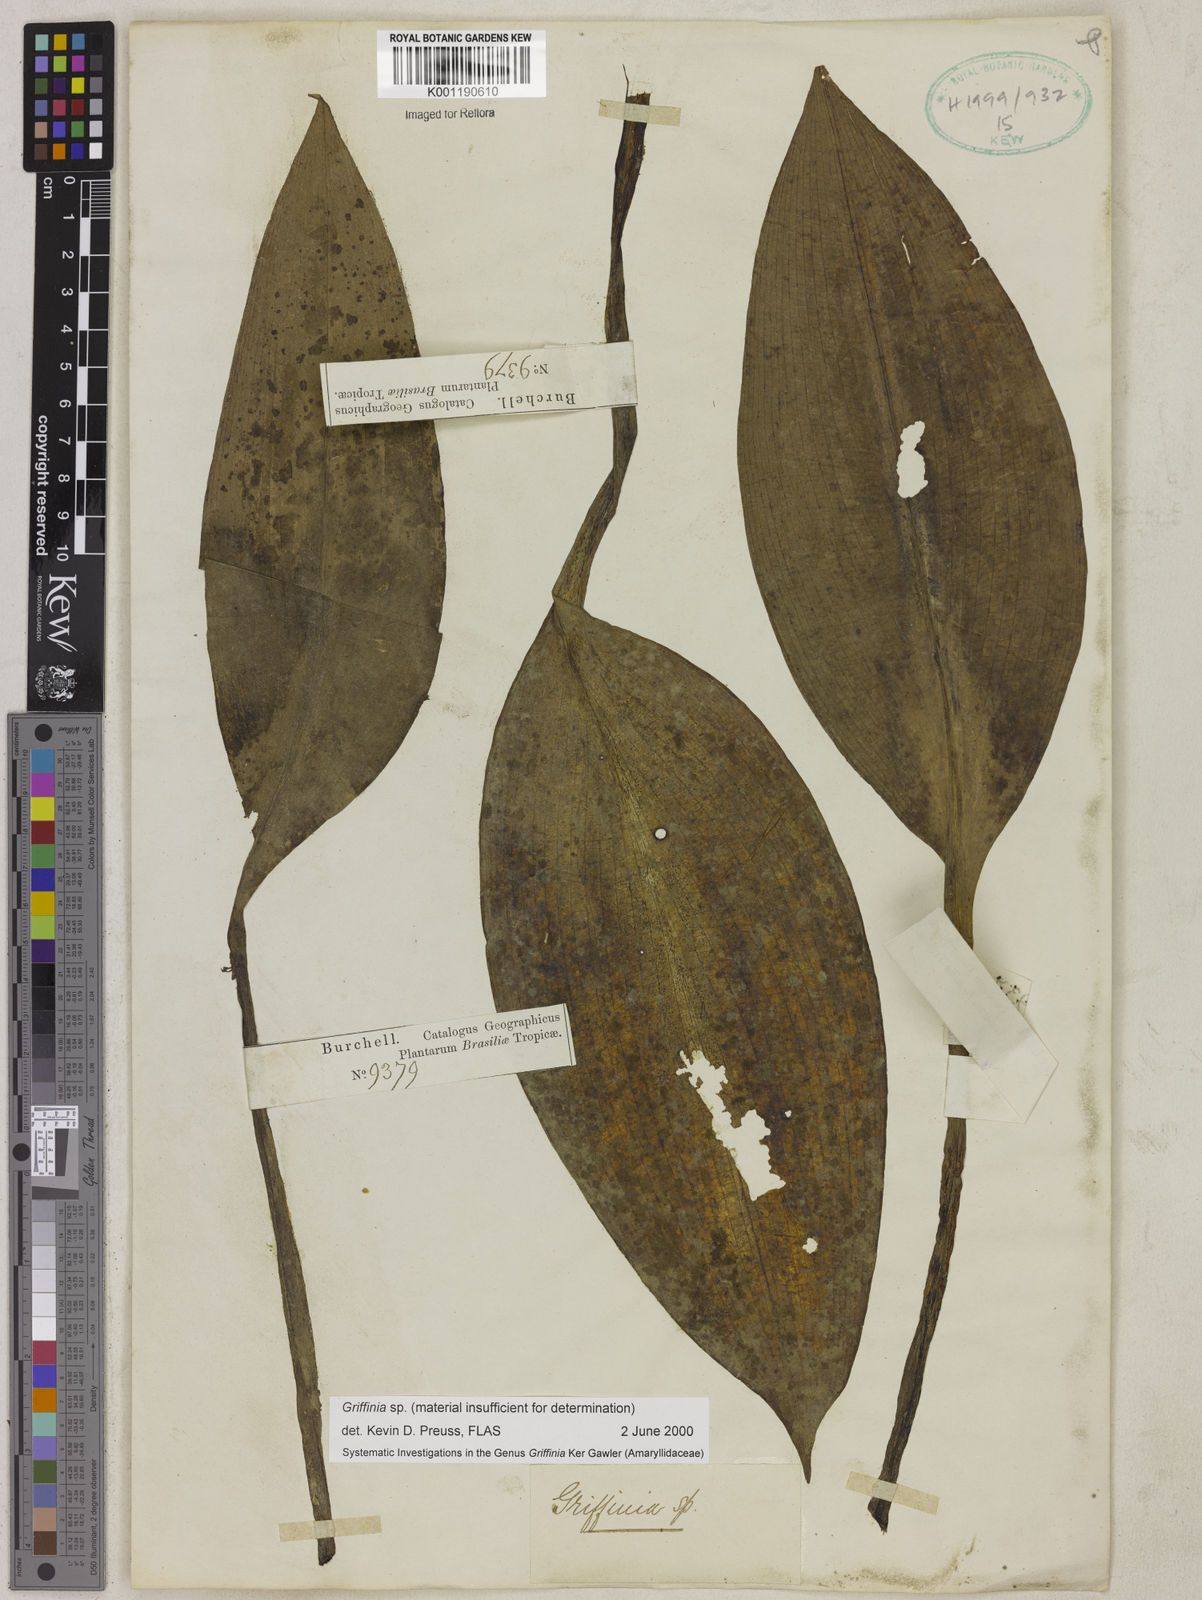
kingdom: Plantae
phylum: Tracheophyta
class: Liliopsida
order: Asparagales
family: Amaryllidaceae
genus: Griffinia
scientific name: Griffinia
